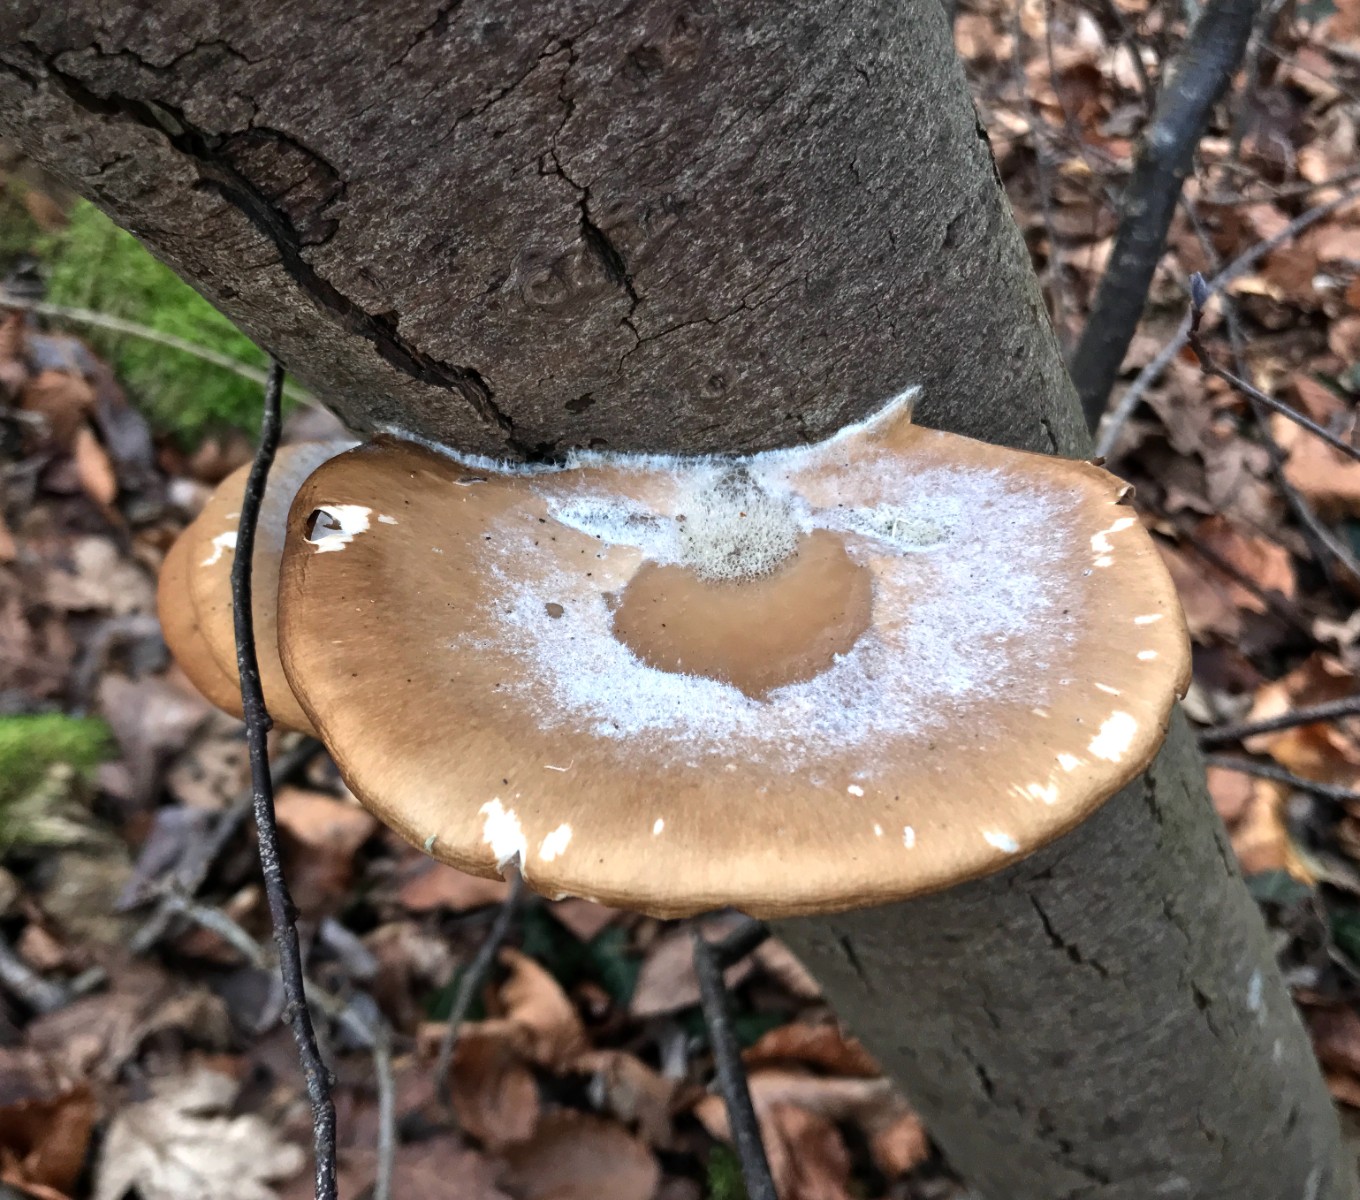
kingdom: Fungi
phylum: Basidiomycota
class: Agaricomycetes
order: Agaricales
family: Pleurotaceae
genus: Pleurotus
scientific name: Pleurotus ostreatus
